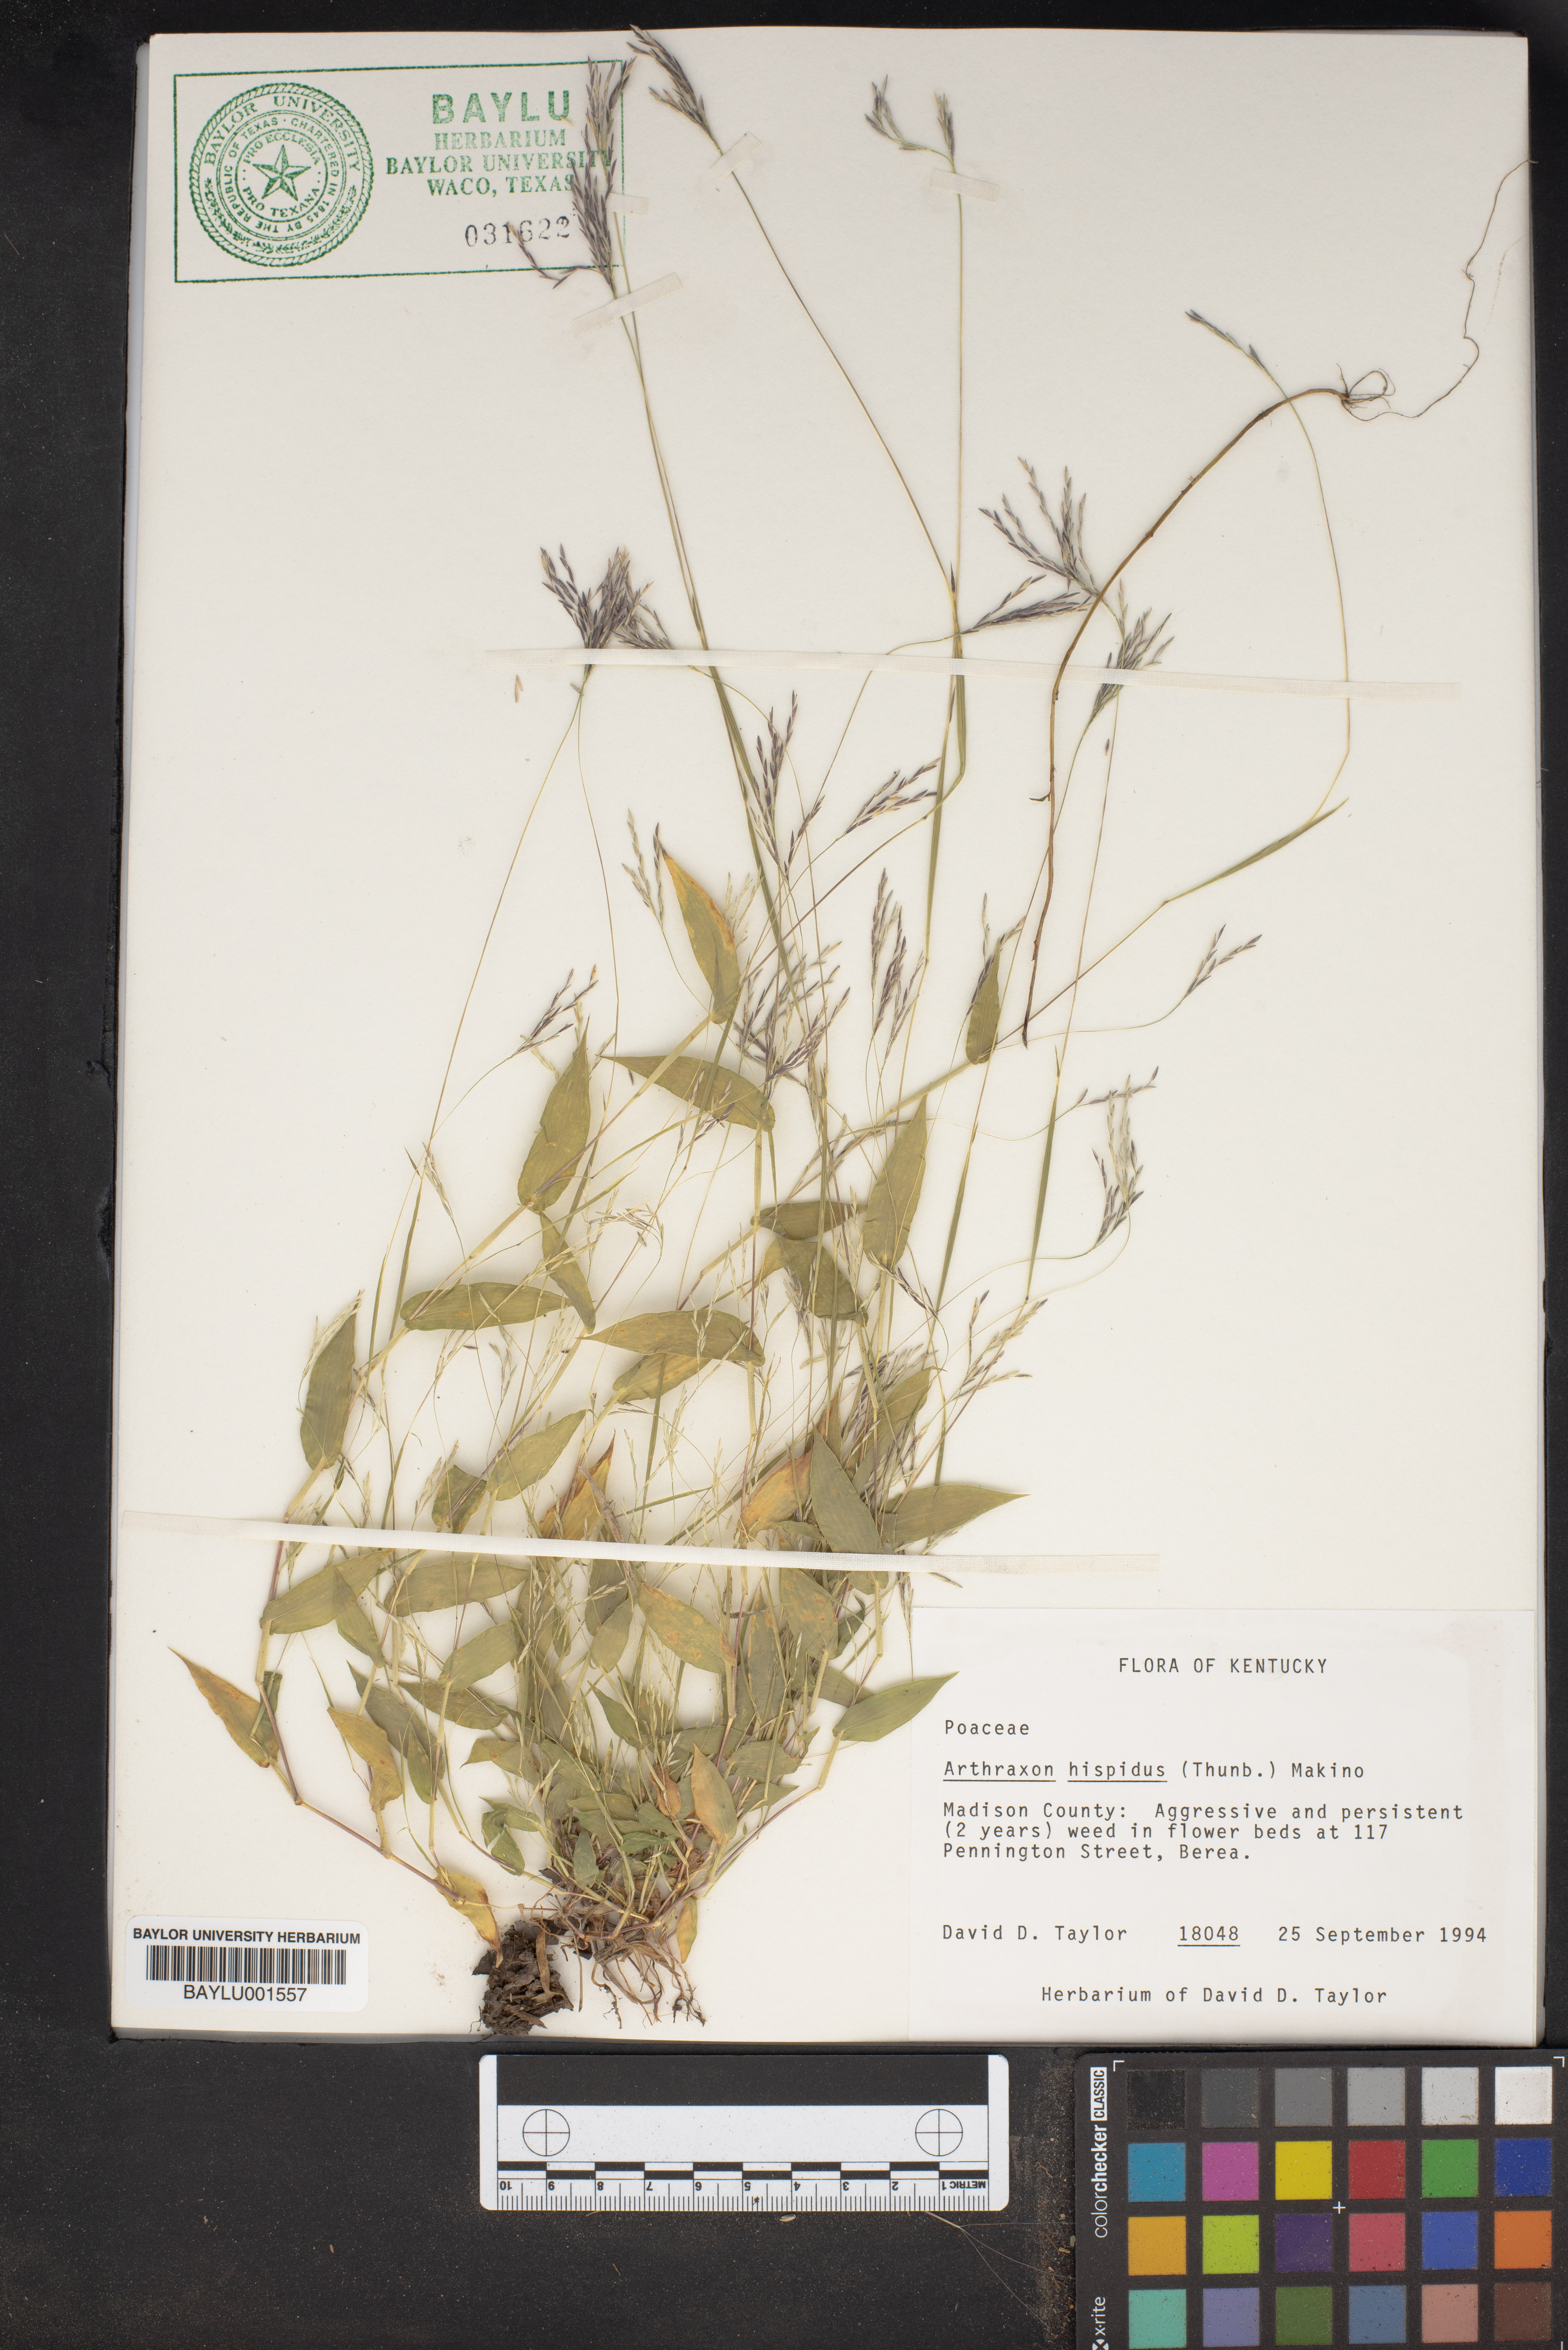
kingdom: Plantae
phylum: Tracheophyta
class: Liliopsida
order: Poales
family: Poaceae
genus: Arthraxon
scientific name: Arthraxon hispidus
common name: Small carpgrass
